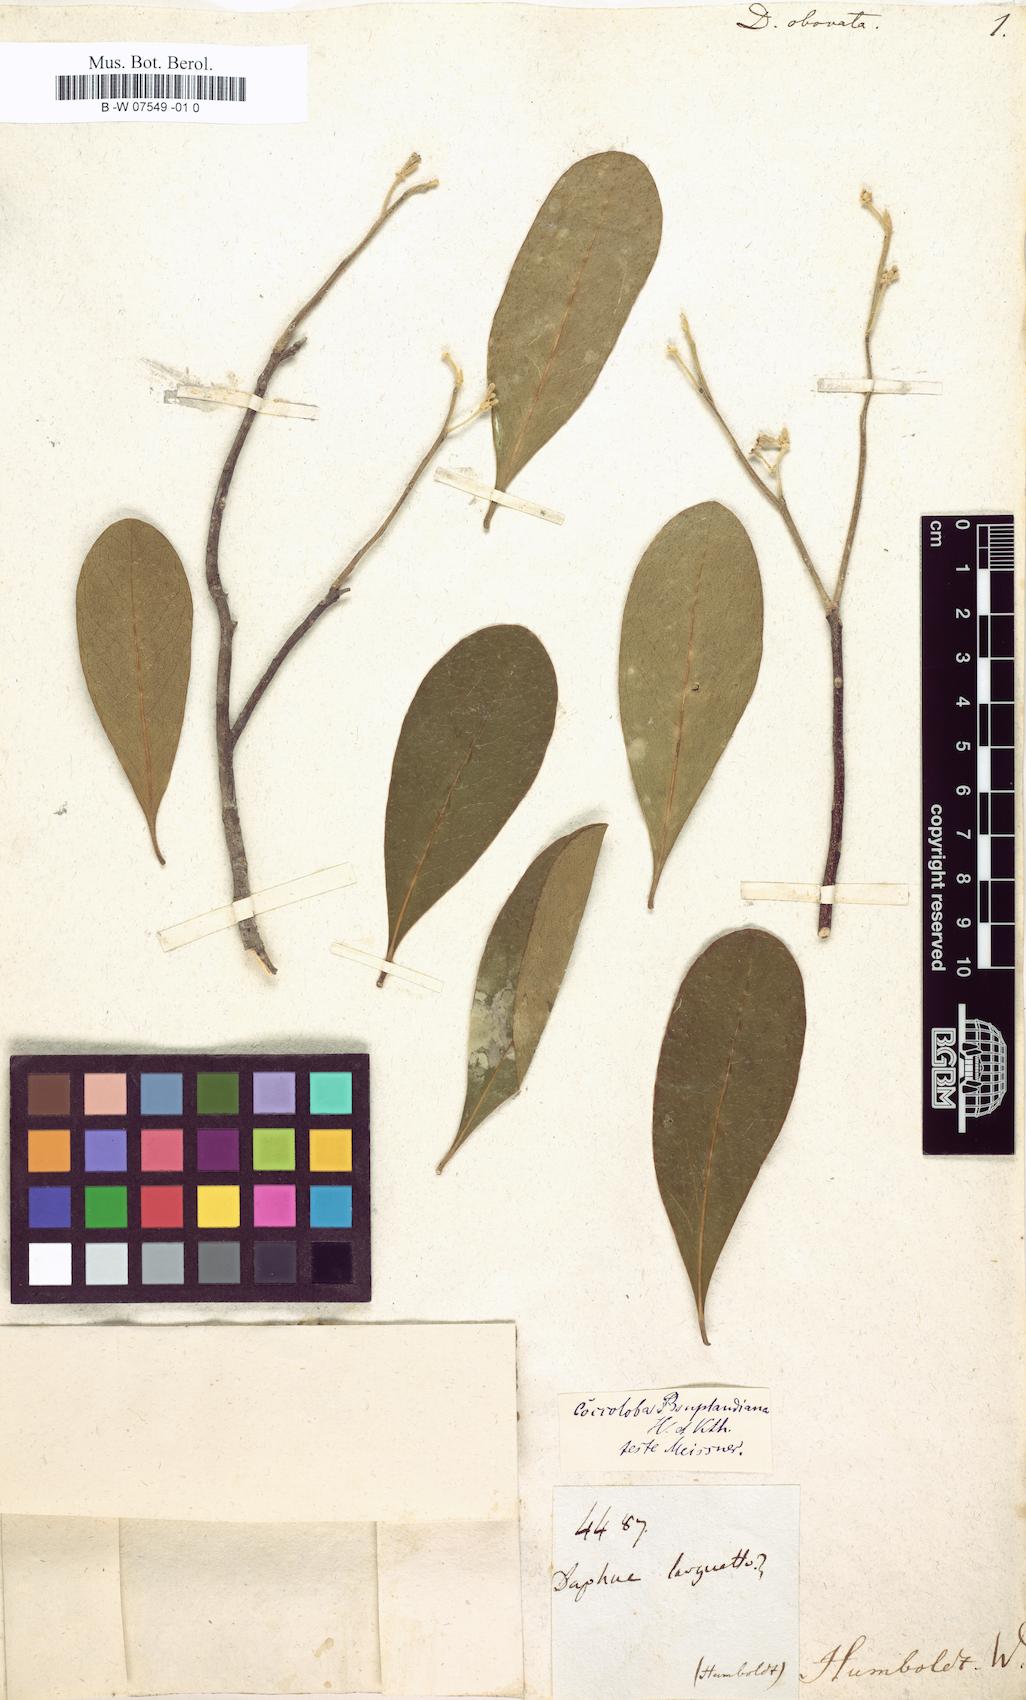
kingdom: Plantae
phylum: Tracheophyta
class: Magnoliopsida
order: Malvales
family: Thymelaeaceae
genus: Daphnopsis
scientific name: Daphnopsis americana
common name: Maho
